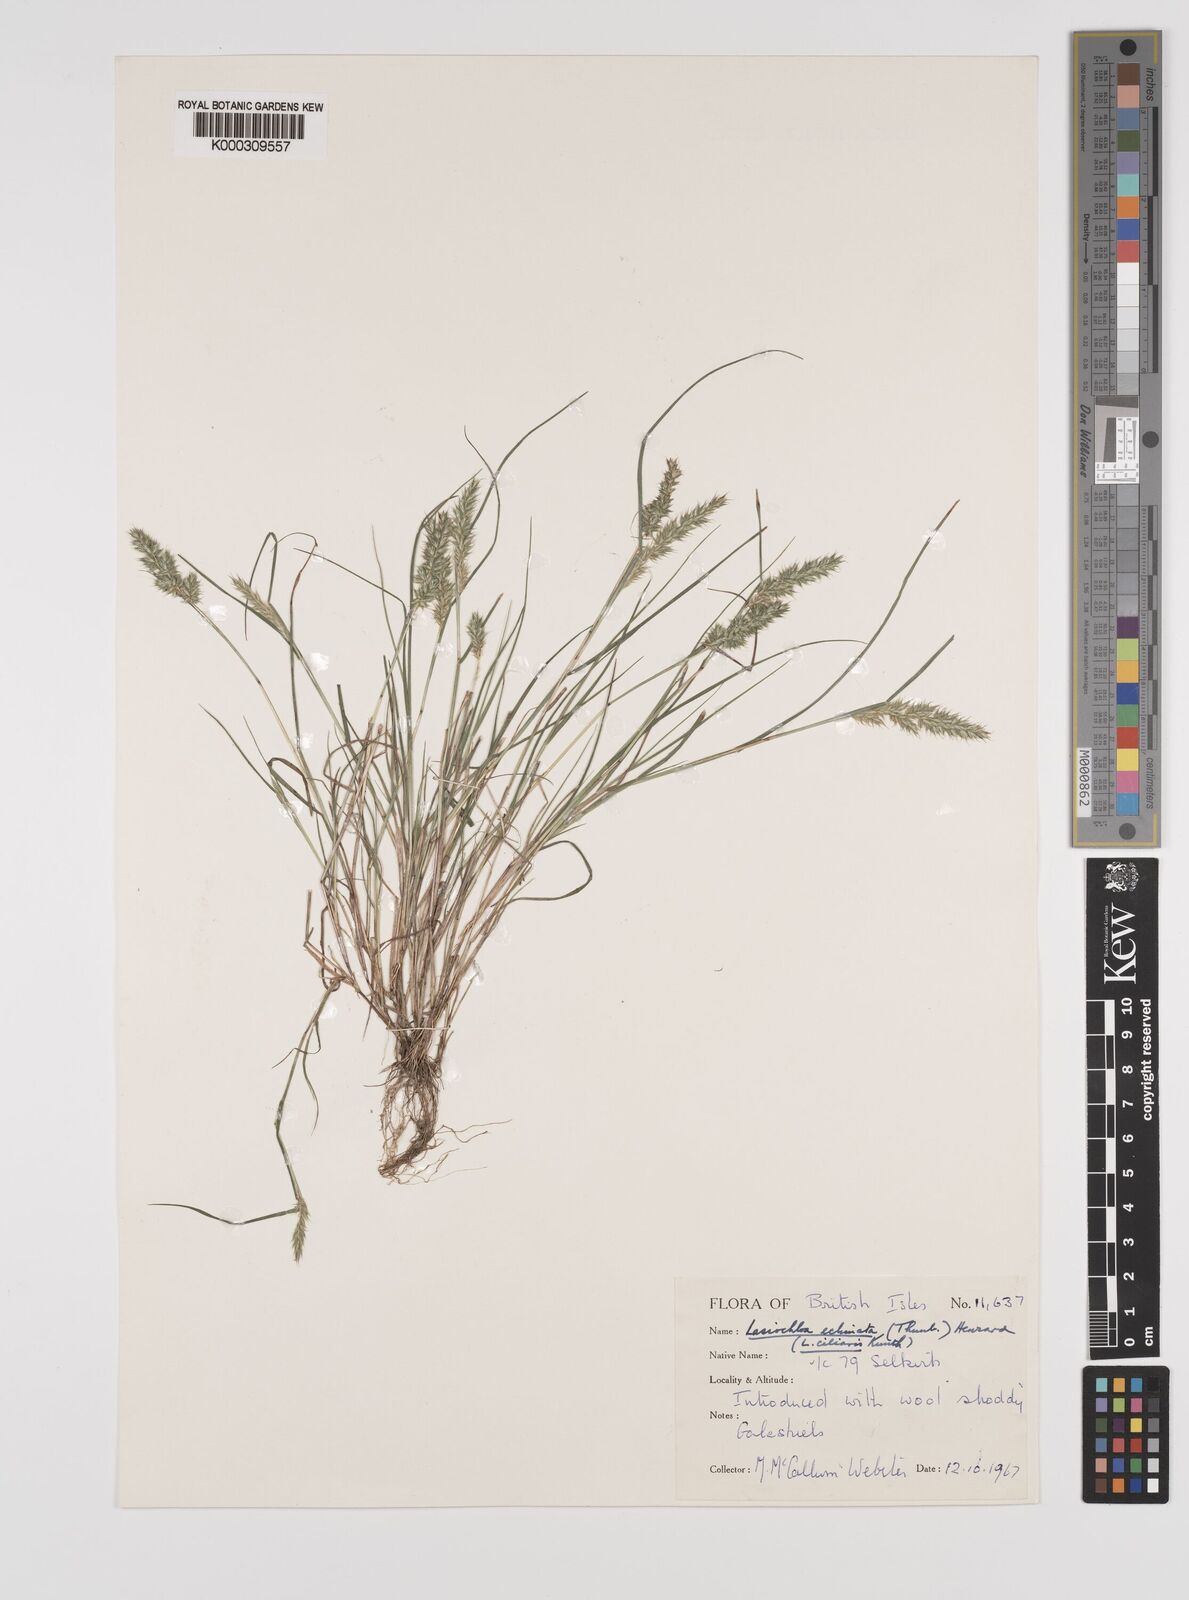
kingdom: Plantae
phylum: Tracheophyta
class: Liliopsida
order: Poales
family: Poaceae
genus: Tribolium
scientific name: Tribolium echinatum
